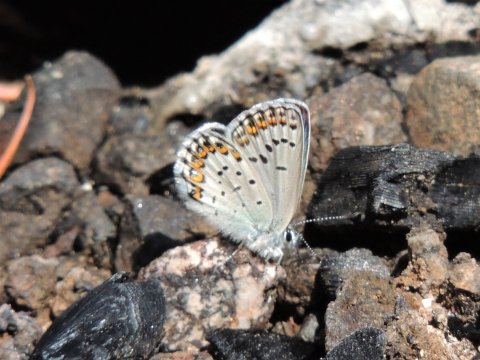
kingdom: Animalia
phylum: Arthropoda
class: Insecta
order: Lepidoptera
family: Lycaenidae
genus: Lycaeides
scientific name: Lycaeides melissa
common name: Melissa Blue
